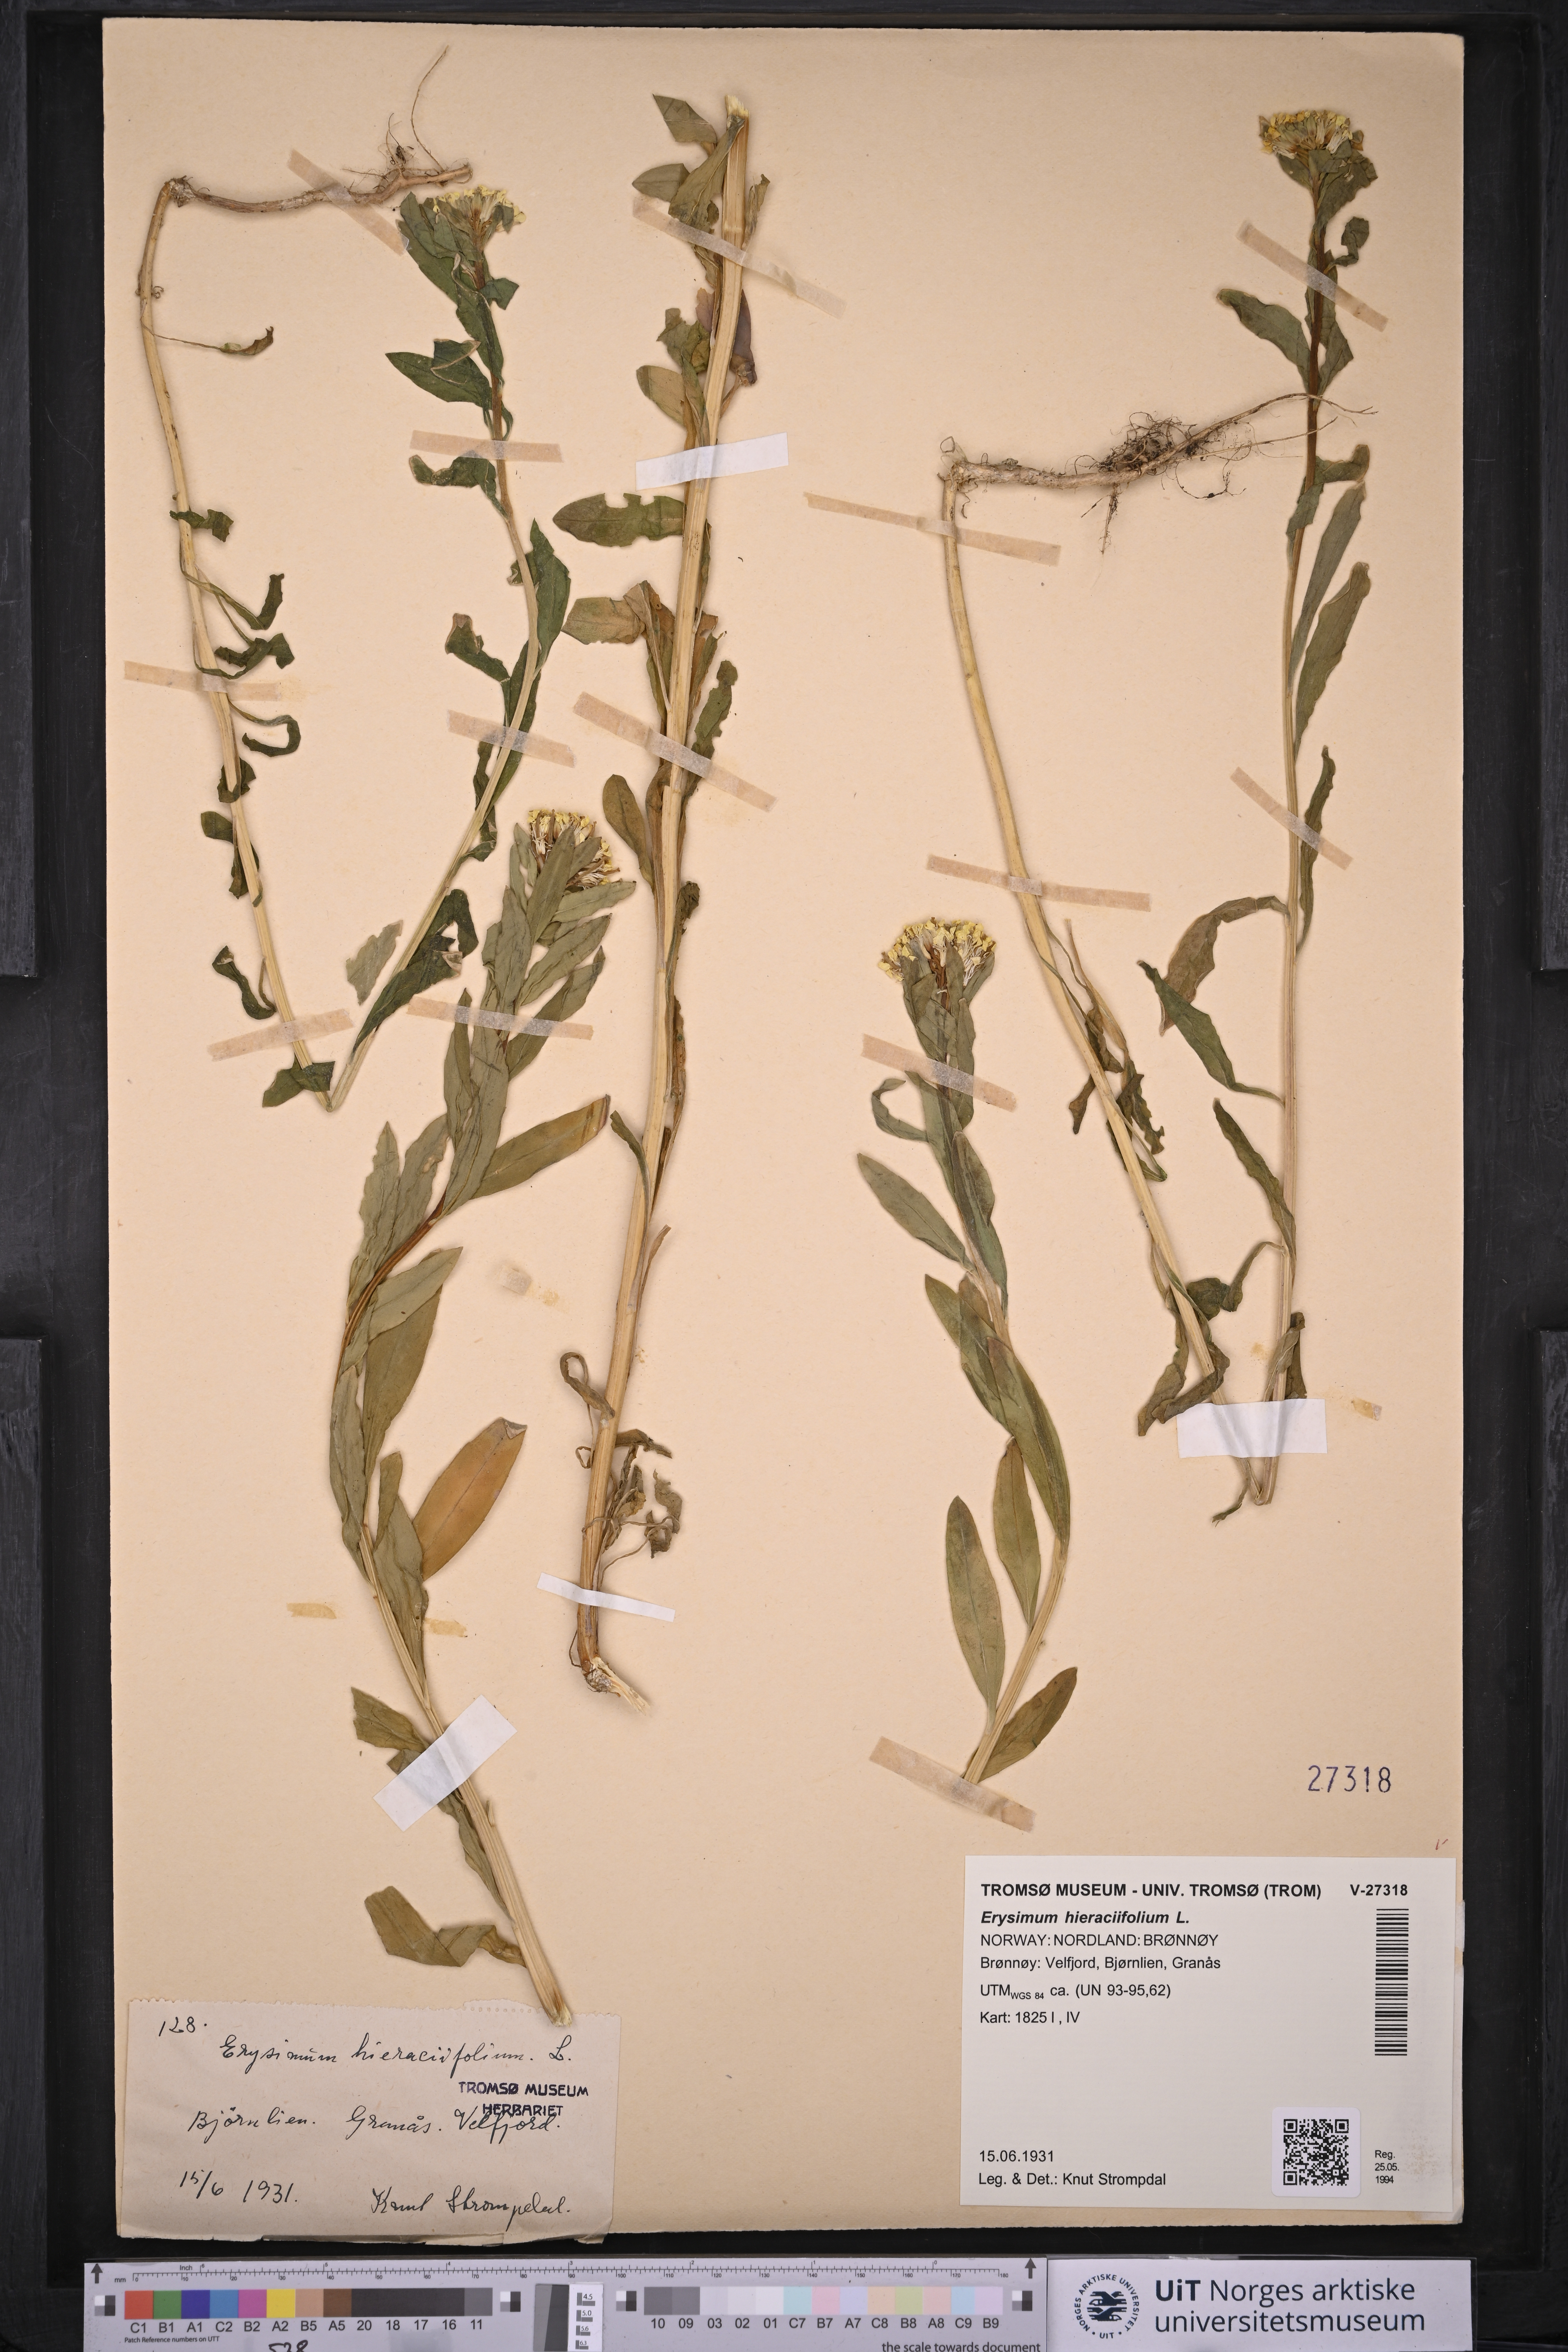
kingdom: Plantae
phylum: Tracheophyta
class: Magnoliopsida
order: Brassicales
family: Brassicaceae
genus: Erysimum
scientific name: Erysimum virgatum
